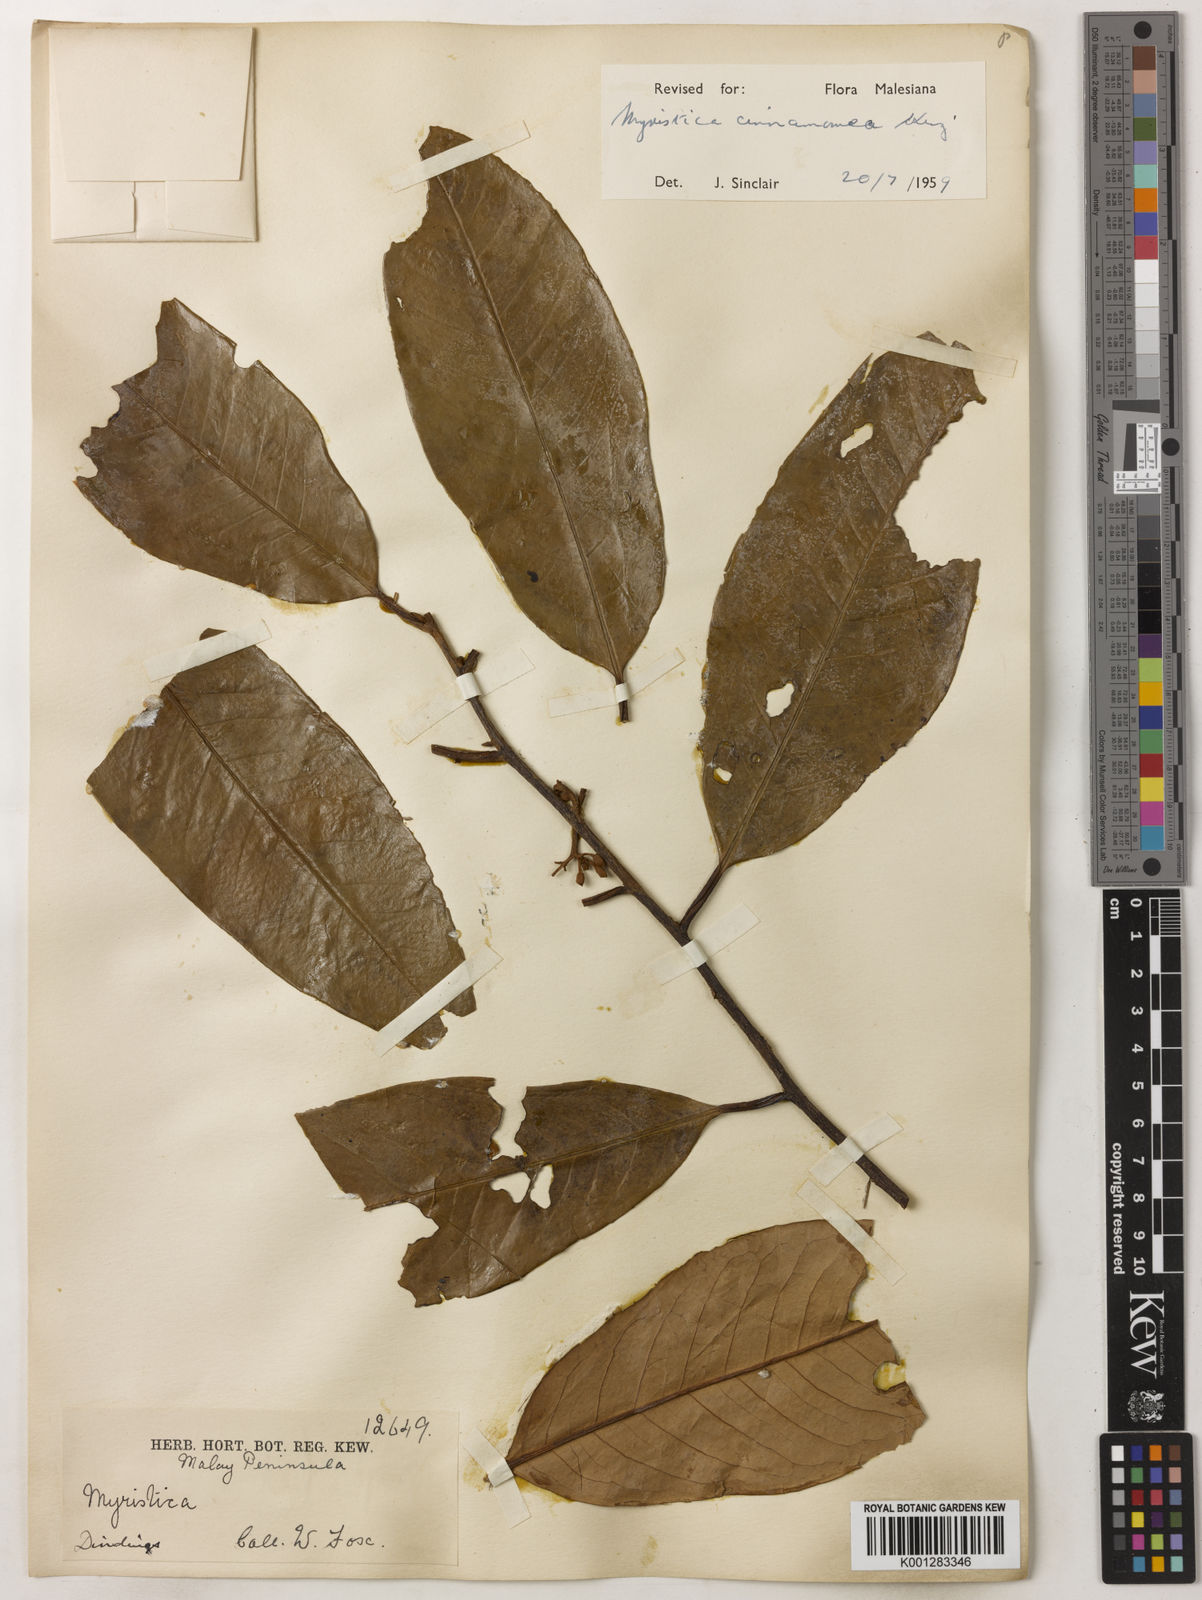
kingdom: Plantae
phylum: Tracheophyta
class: Magnoliopsida
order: Magnoliales
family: Myristicaceae
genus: Myristica
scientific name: Myristica cinnamomea
